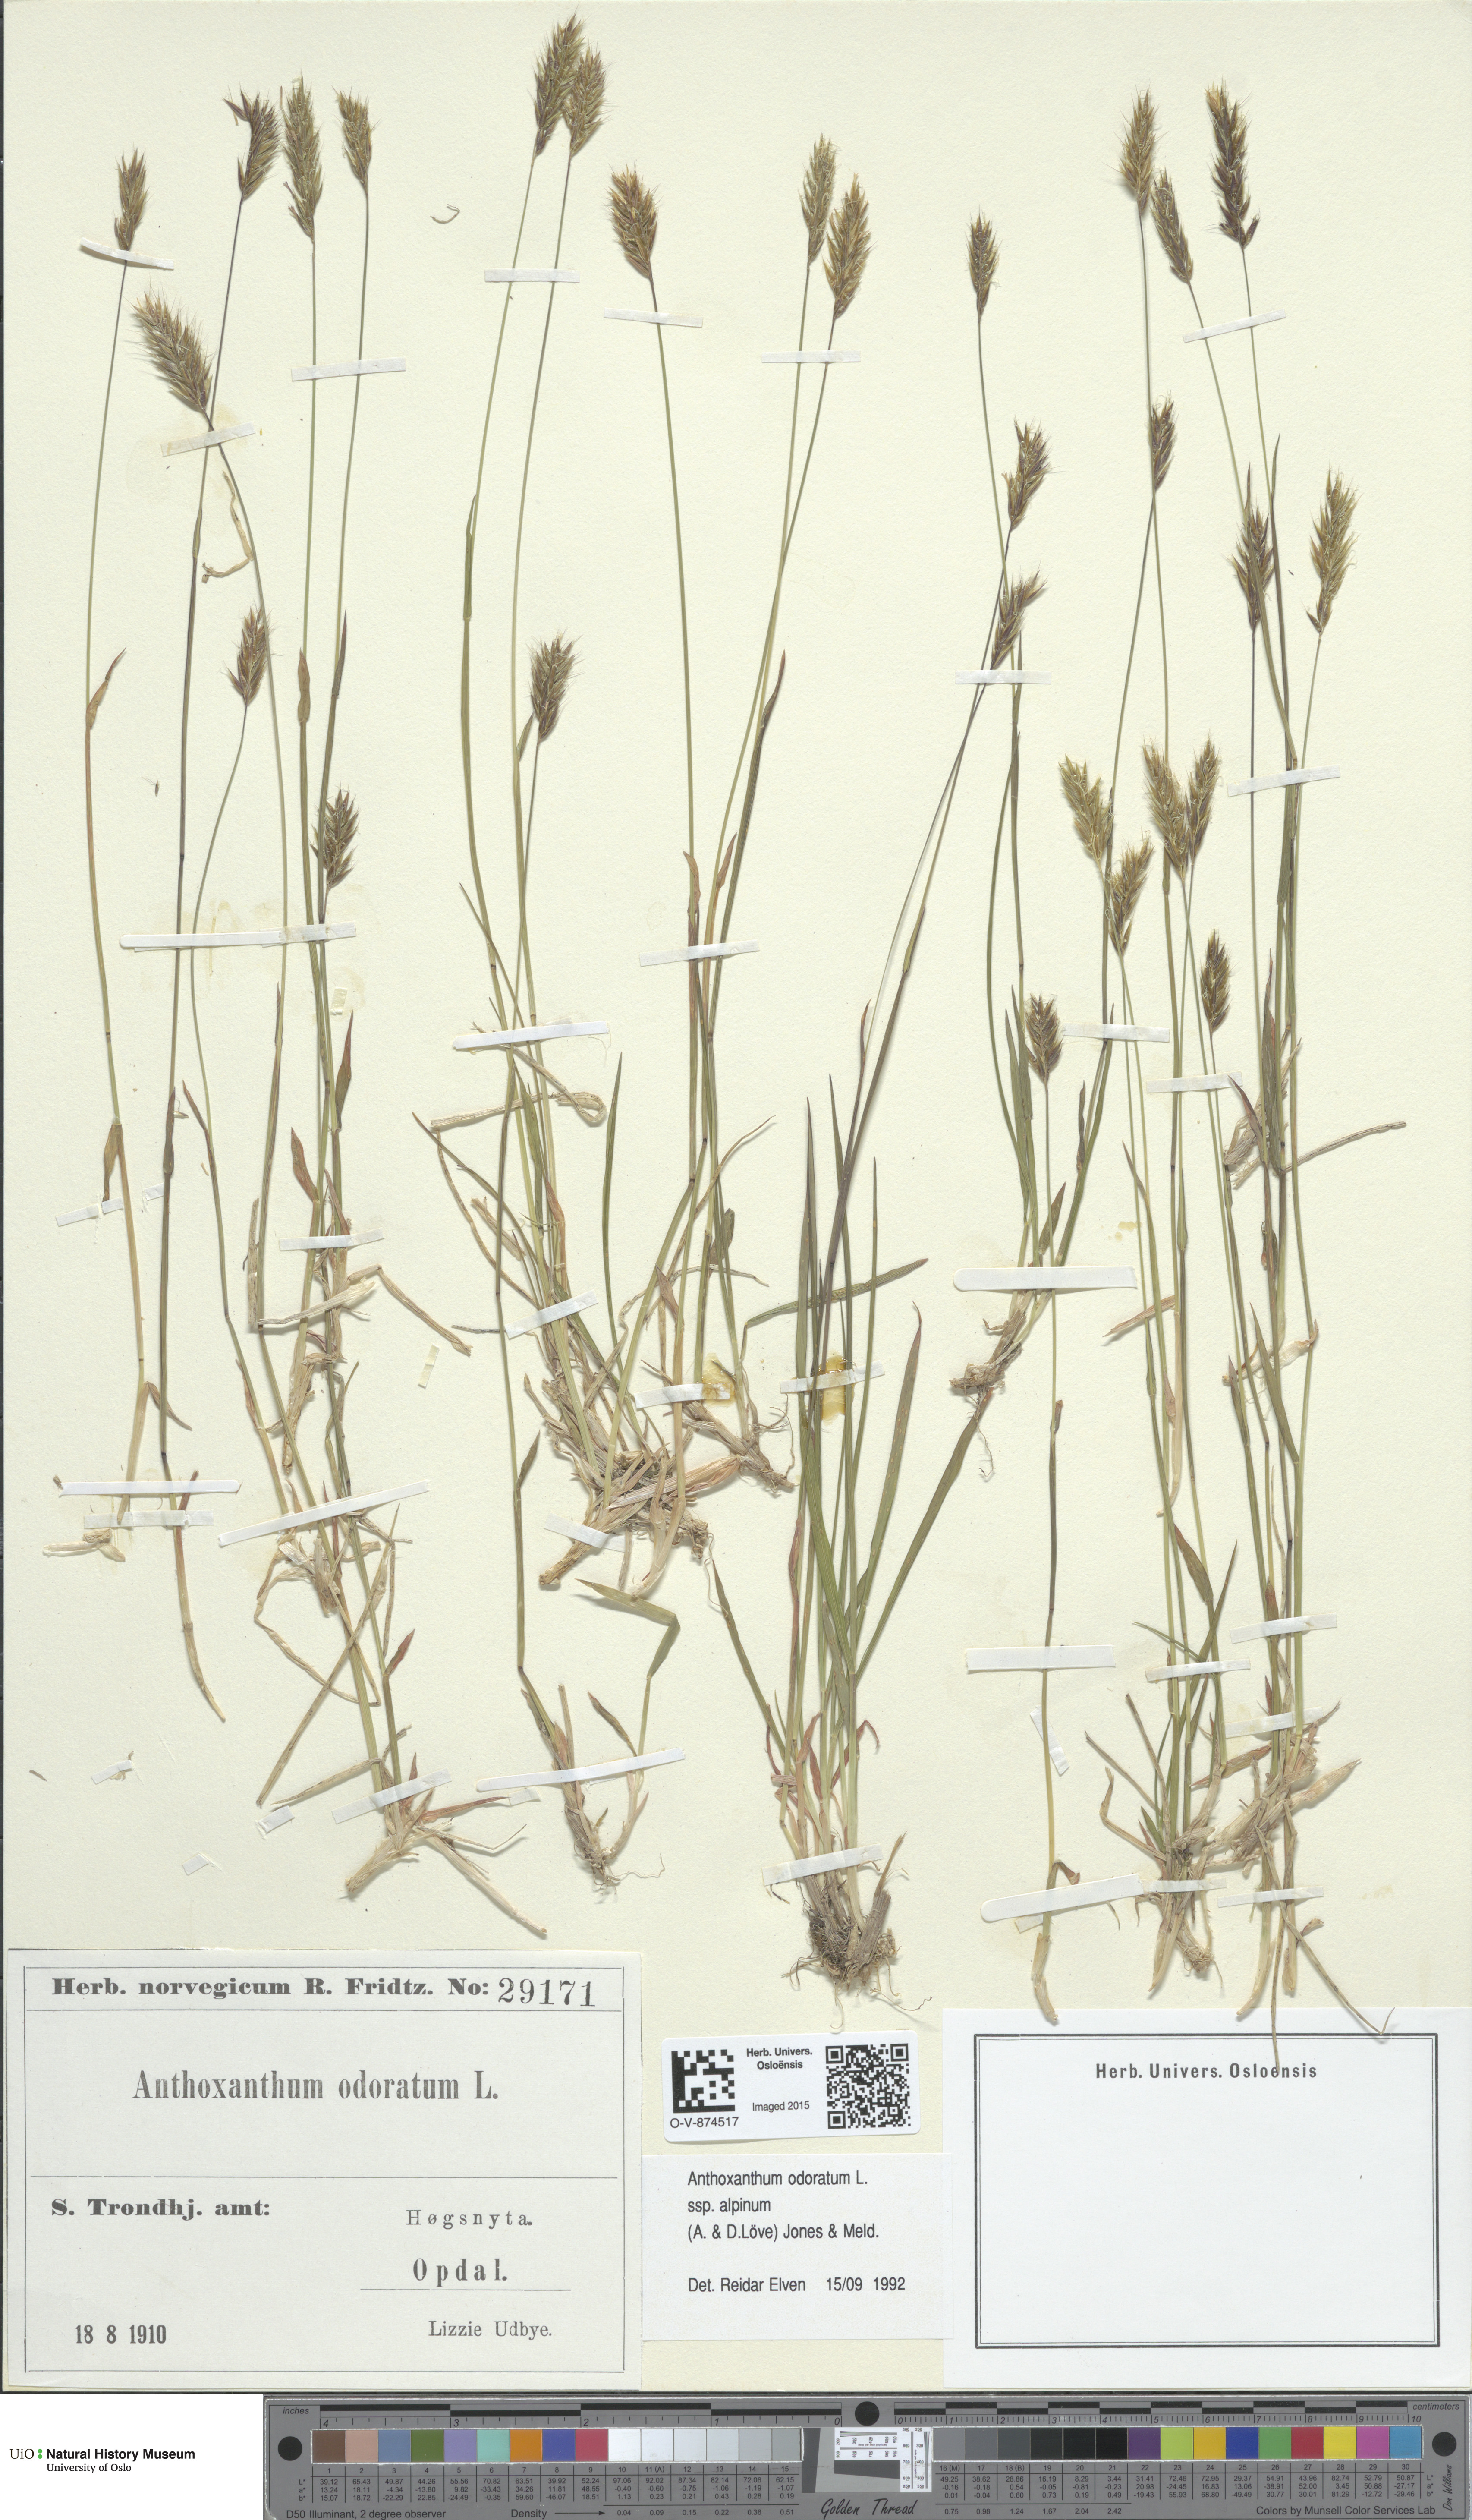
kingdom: Plantae
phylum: Tracheophyta
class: Liliopsida
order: Poales
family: Poaceae
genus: Anthoxanthum
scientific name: Anthoxanthum nipponicum
